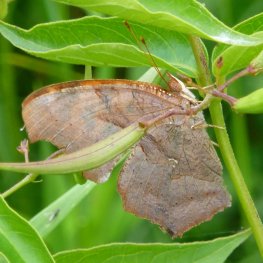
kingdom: Animalia
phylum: Arthropoda
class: Insecta
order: Lepidoptera
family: Nymphalidae
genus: Polygonia
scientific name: Polygonia interrogationis
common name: Question Mark
